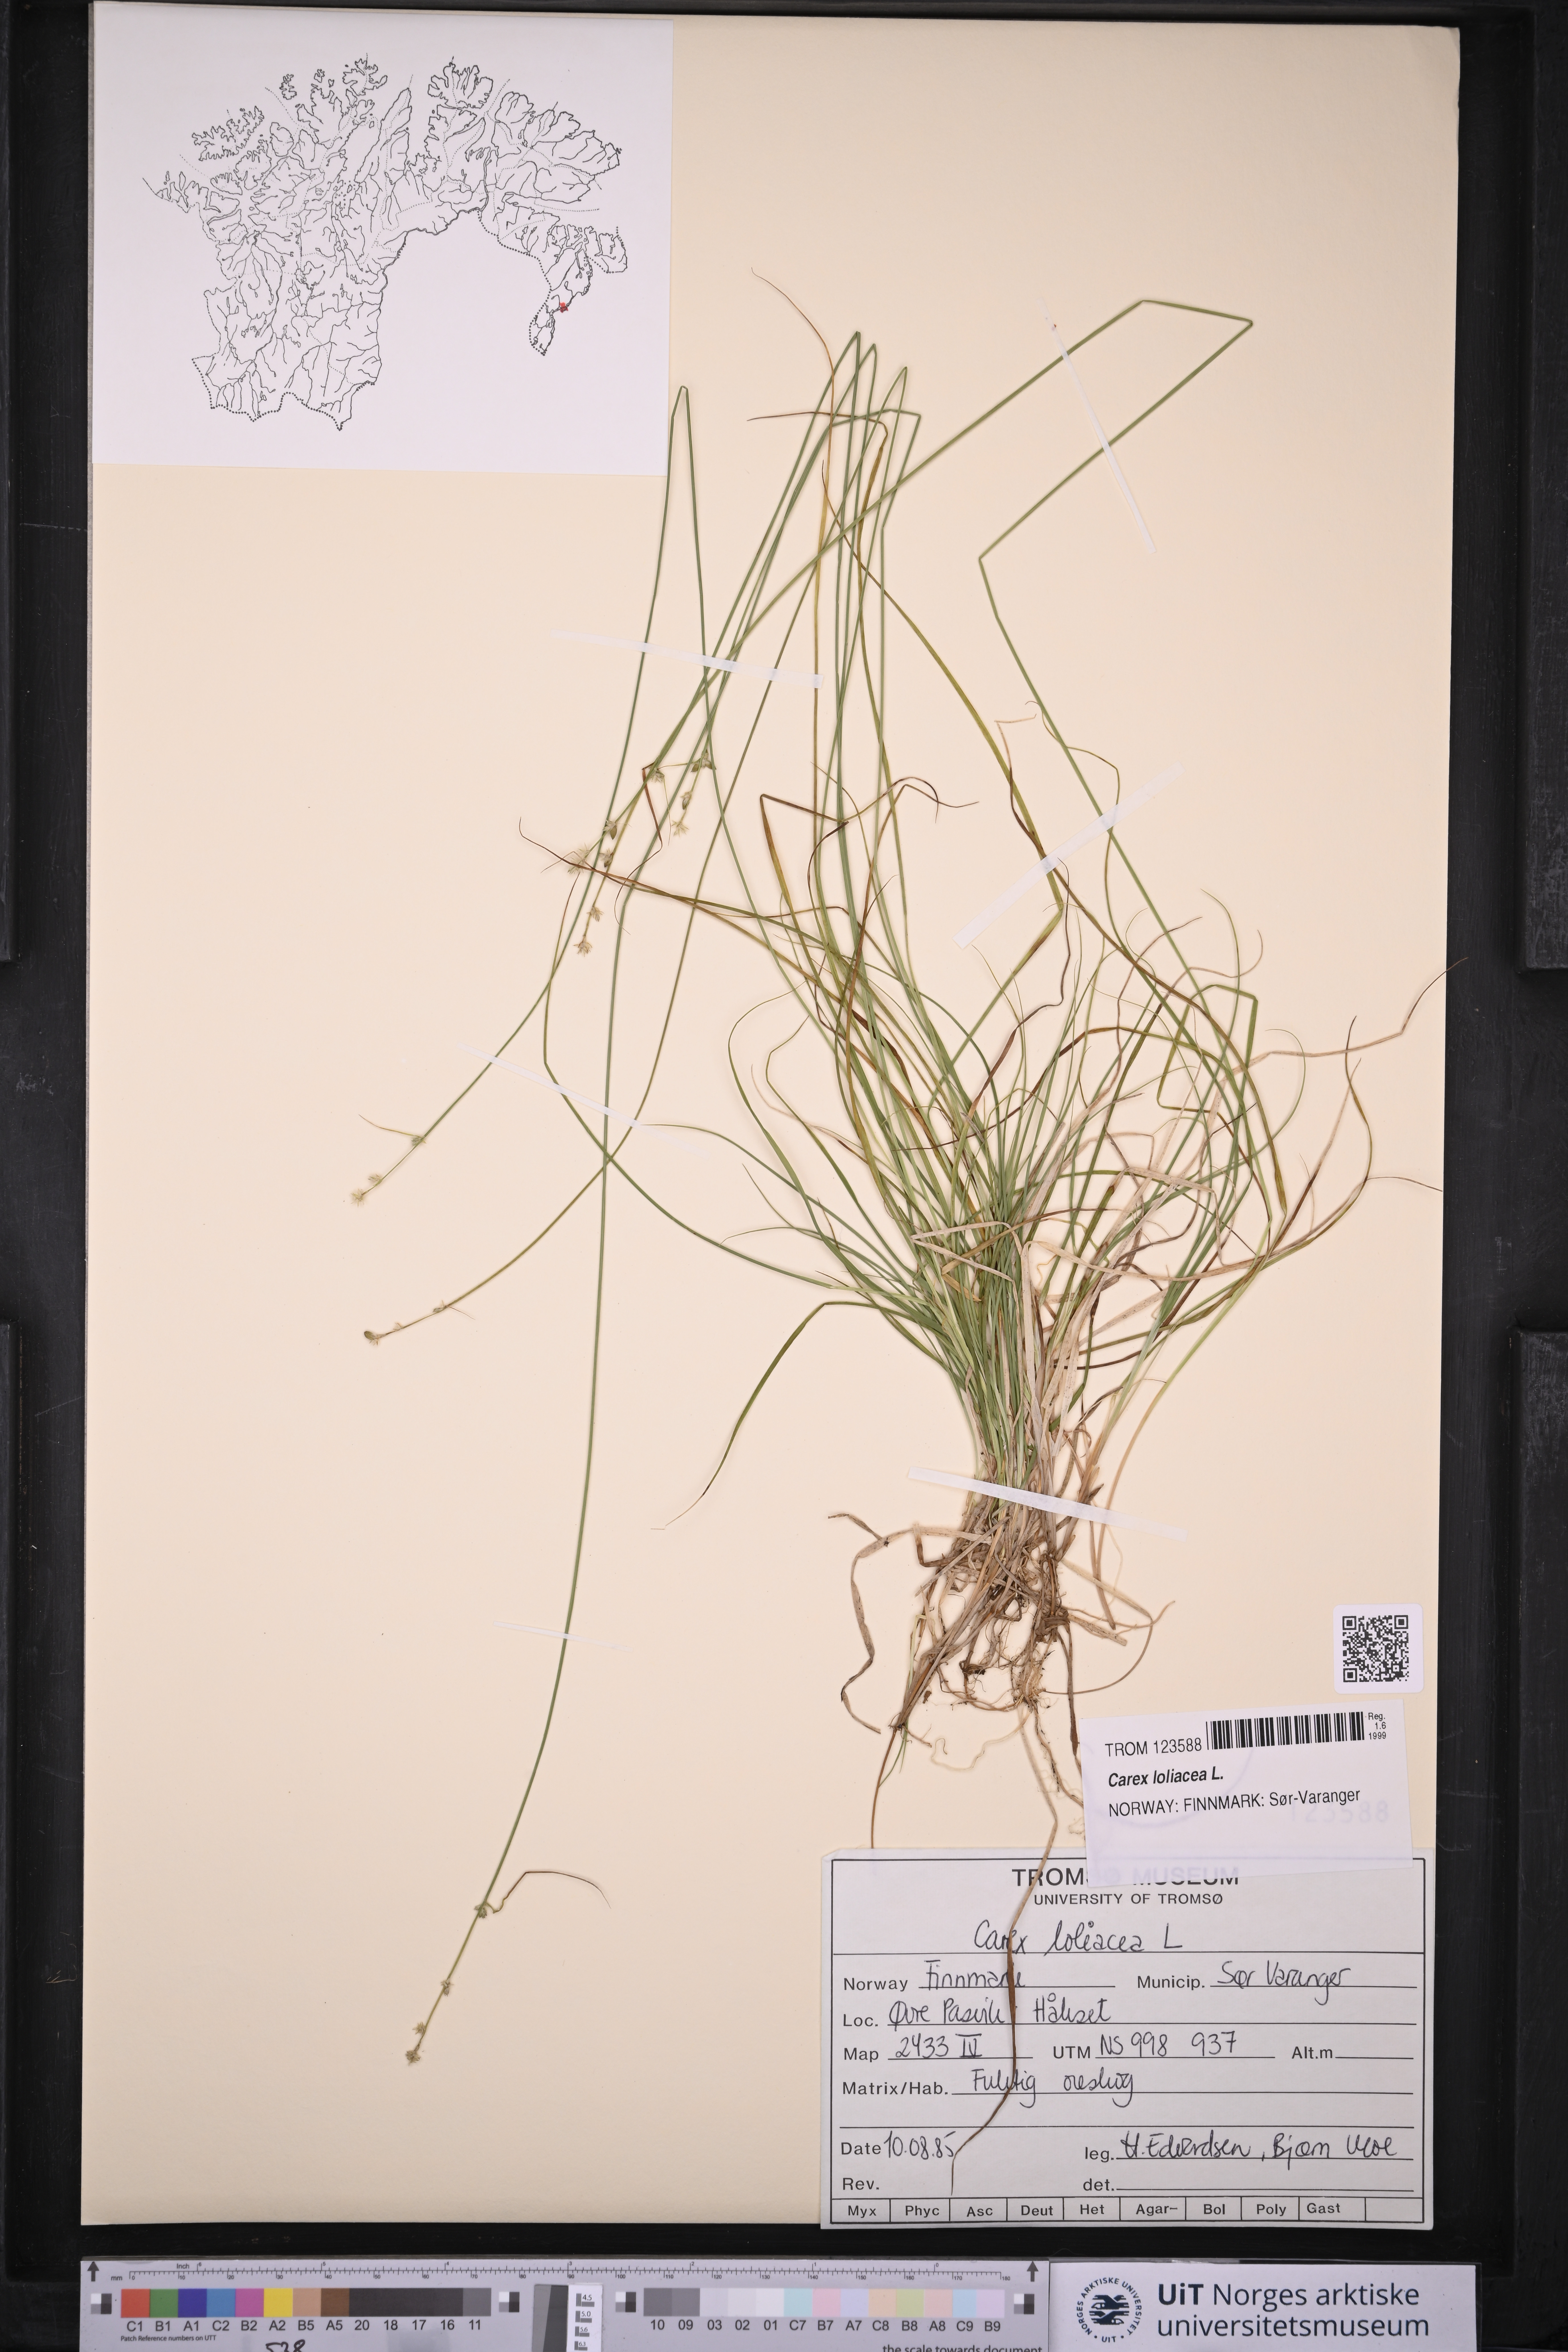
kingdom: Plantae
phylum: Tracheophyta
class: Liliopsida
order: Poales
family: Cyperaceae
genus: Carex
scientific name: Carex loliacea
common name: Ryegrass sedge
